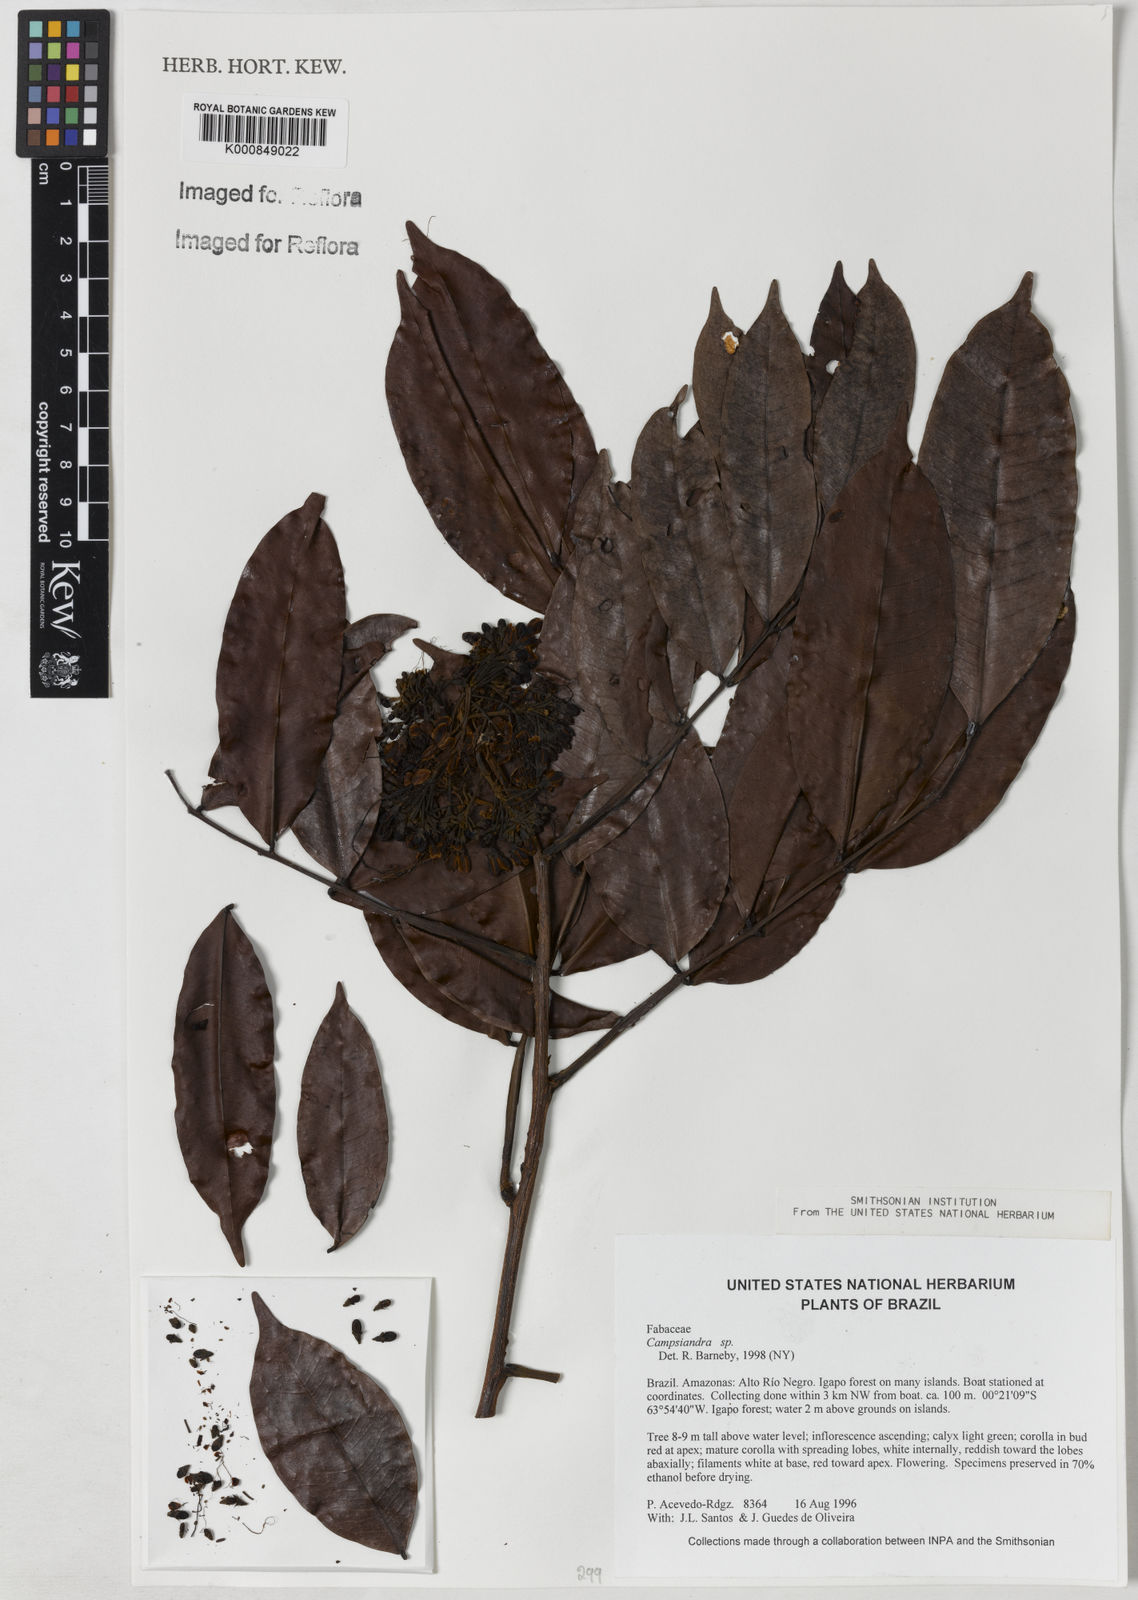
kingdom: Plantae
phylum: Tracheophyta
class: Magnoliopsida
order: Fabales
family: Fabaceae
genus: Campsiandra
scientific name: Campsiandra
